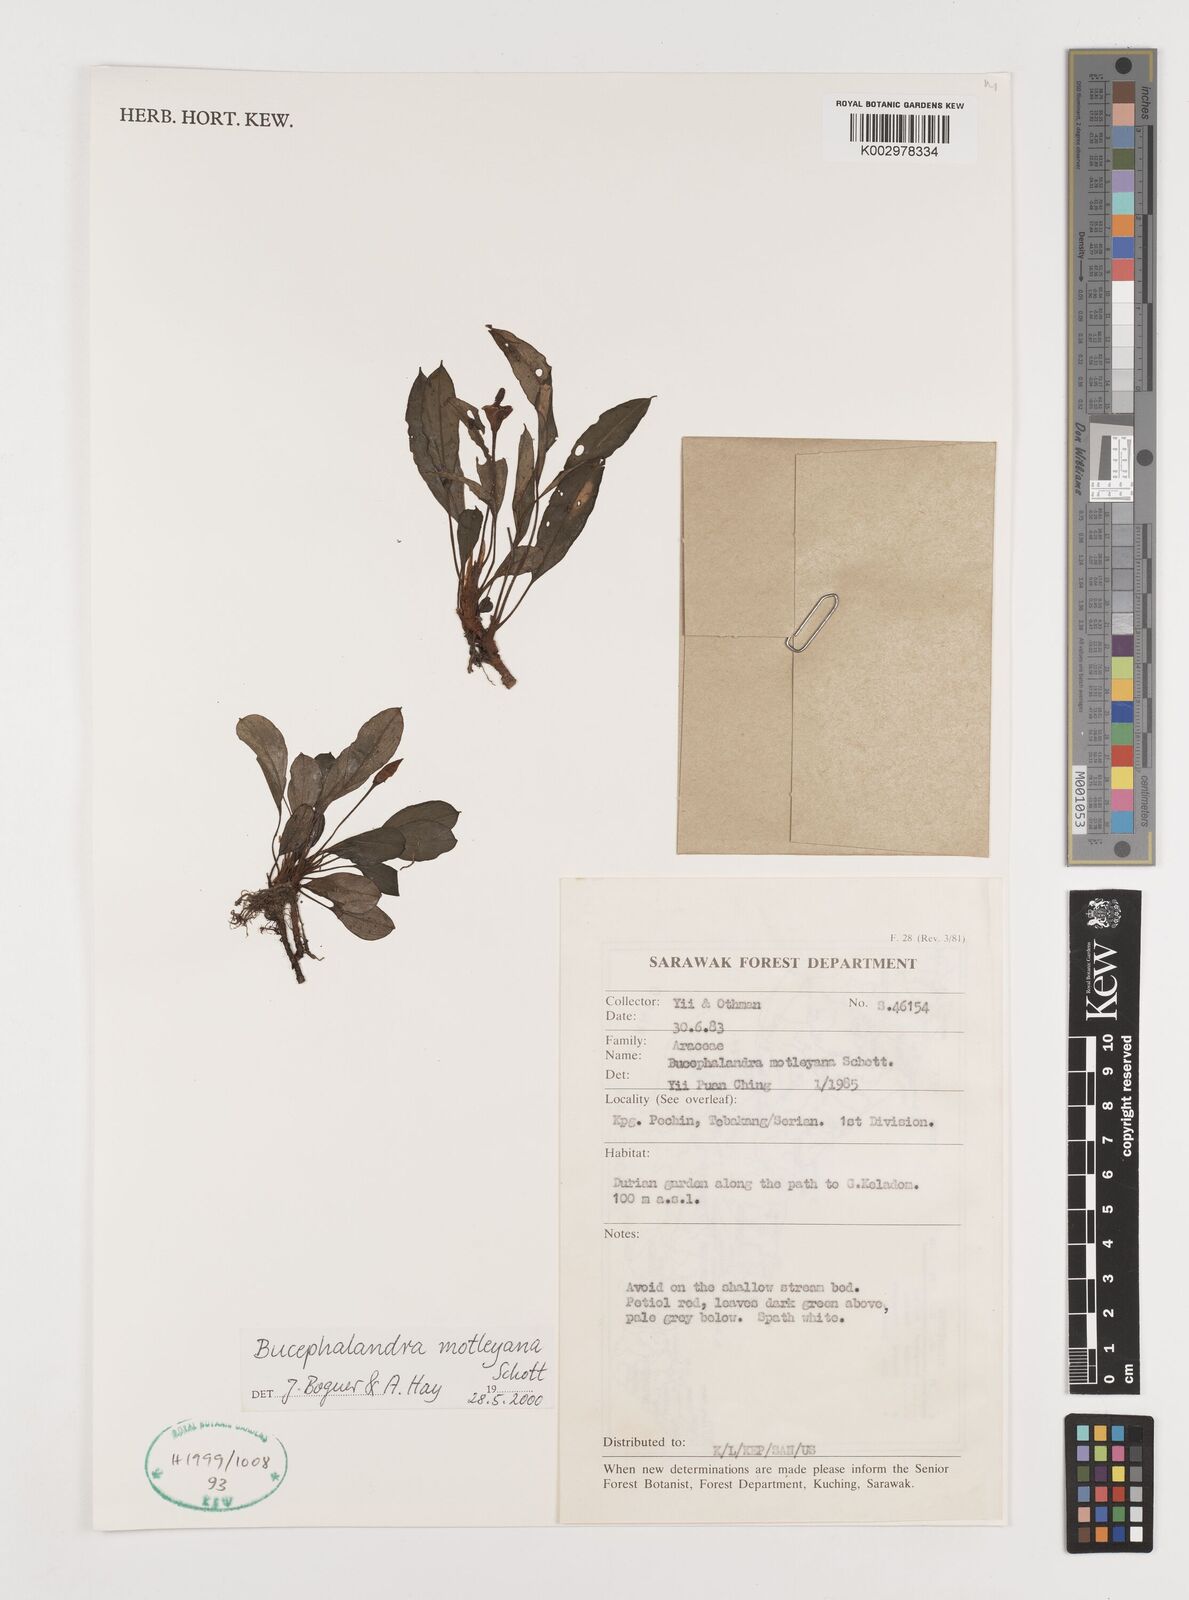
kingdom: Plantae
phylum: Tracheophyta
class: Liliopsida
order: Alismatales
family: Araceae
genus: Bucephalandra
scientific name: Bucephalandra motleyana
